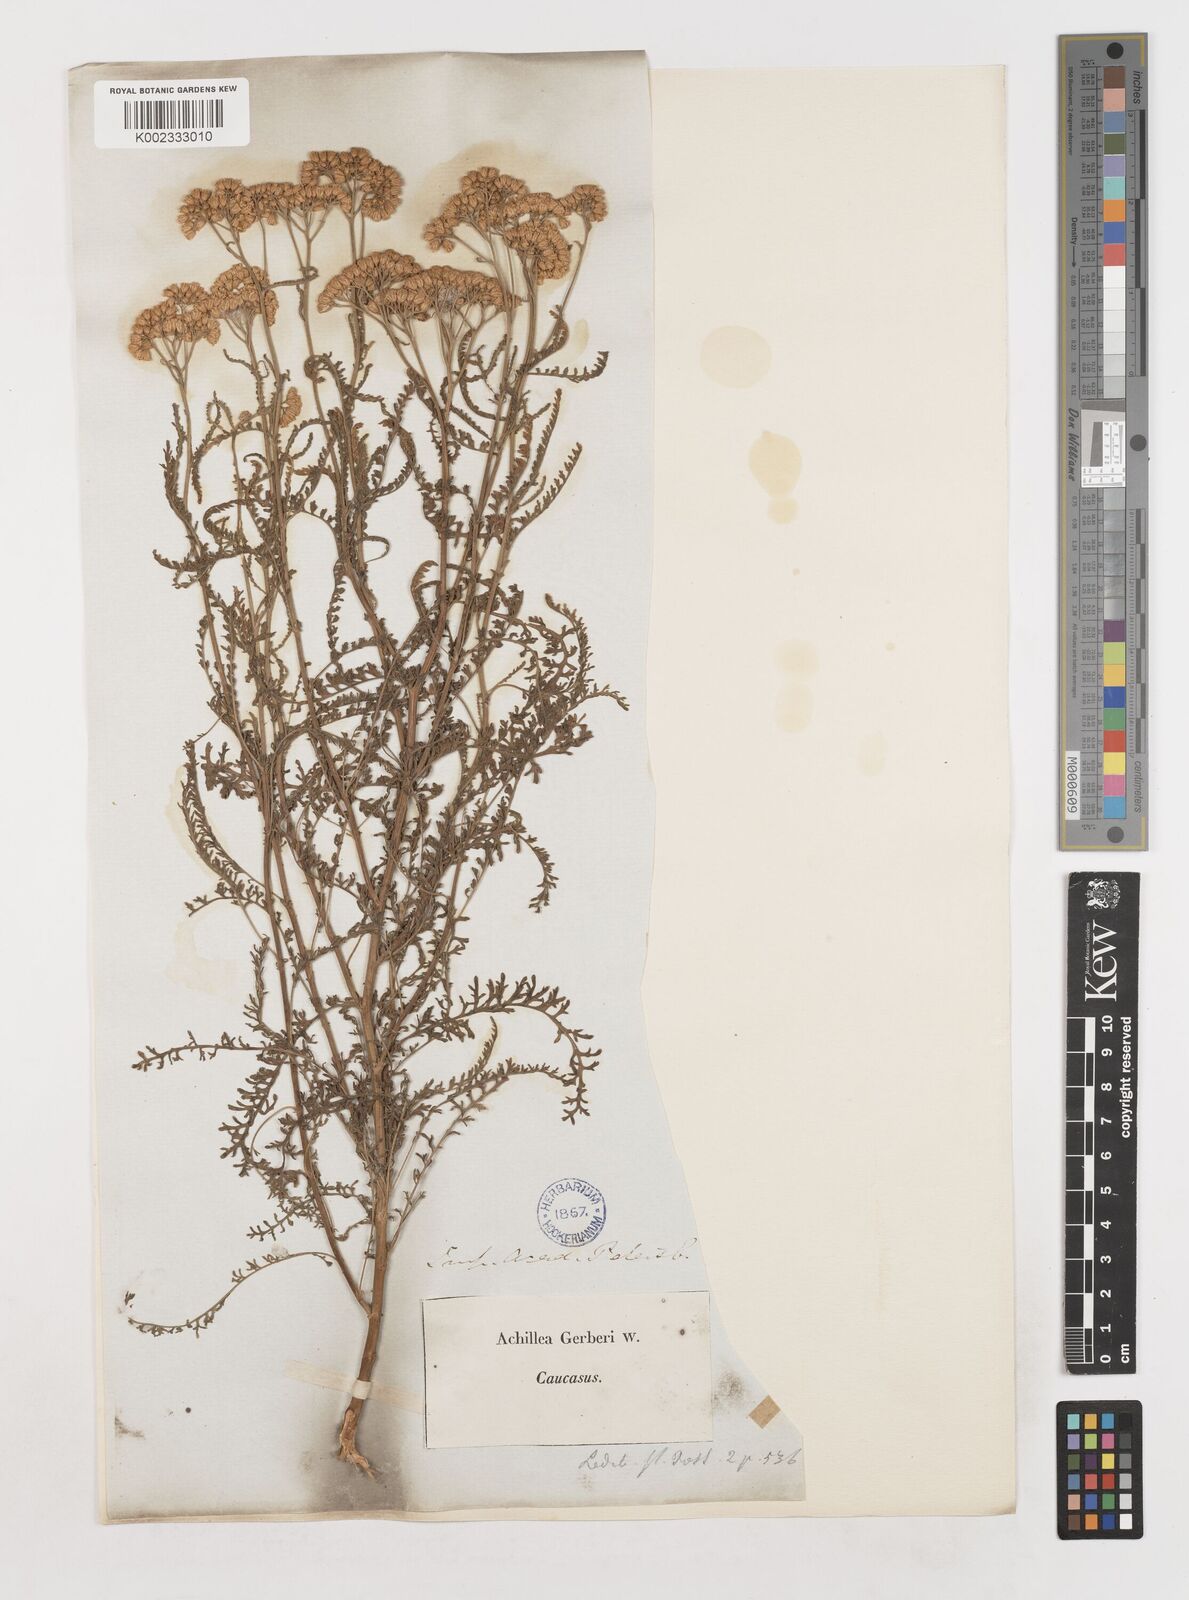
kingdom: Plantae
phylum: Tracheophyta
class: Magnoliopsida
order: Asterales
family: Asteraceae
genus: Achillea
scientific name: Achillea nobilis
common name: Noble yarrow
